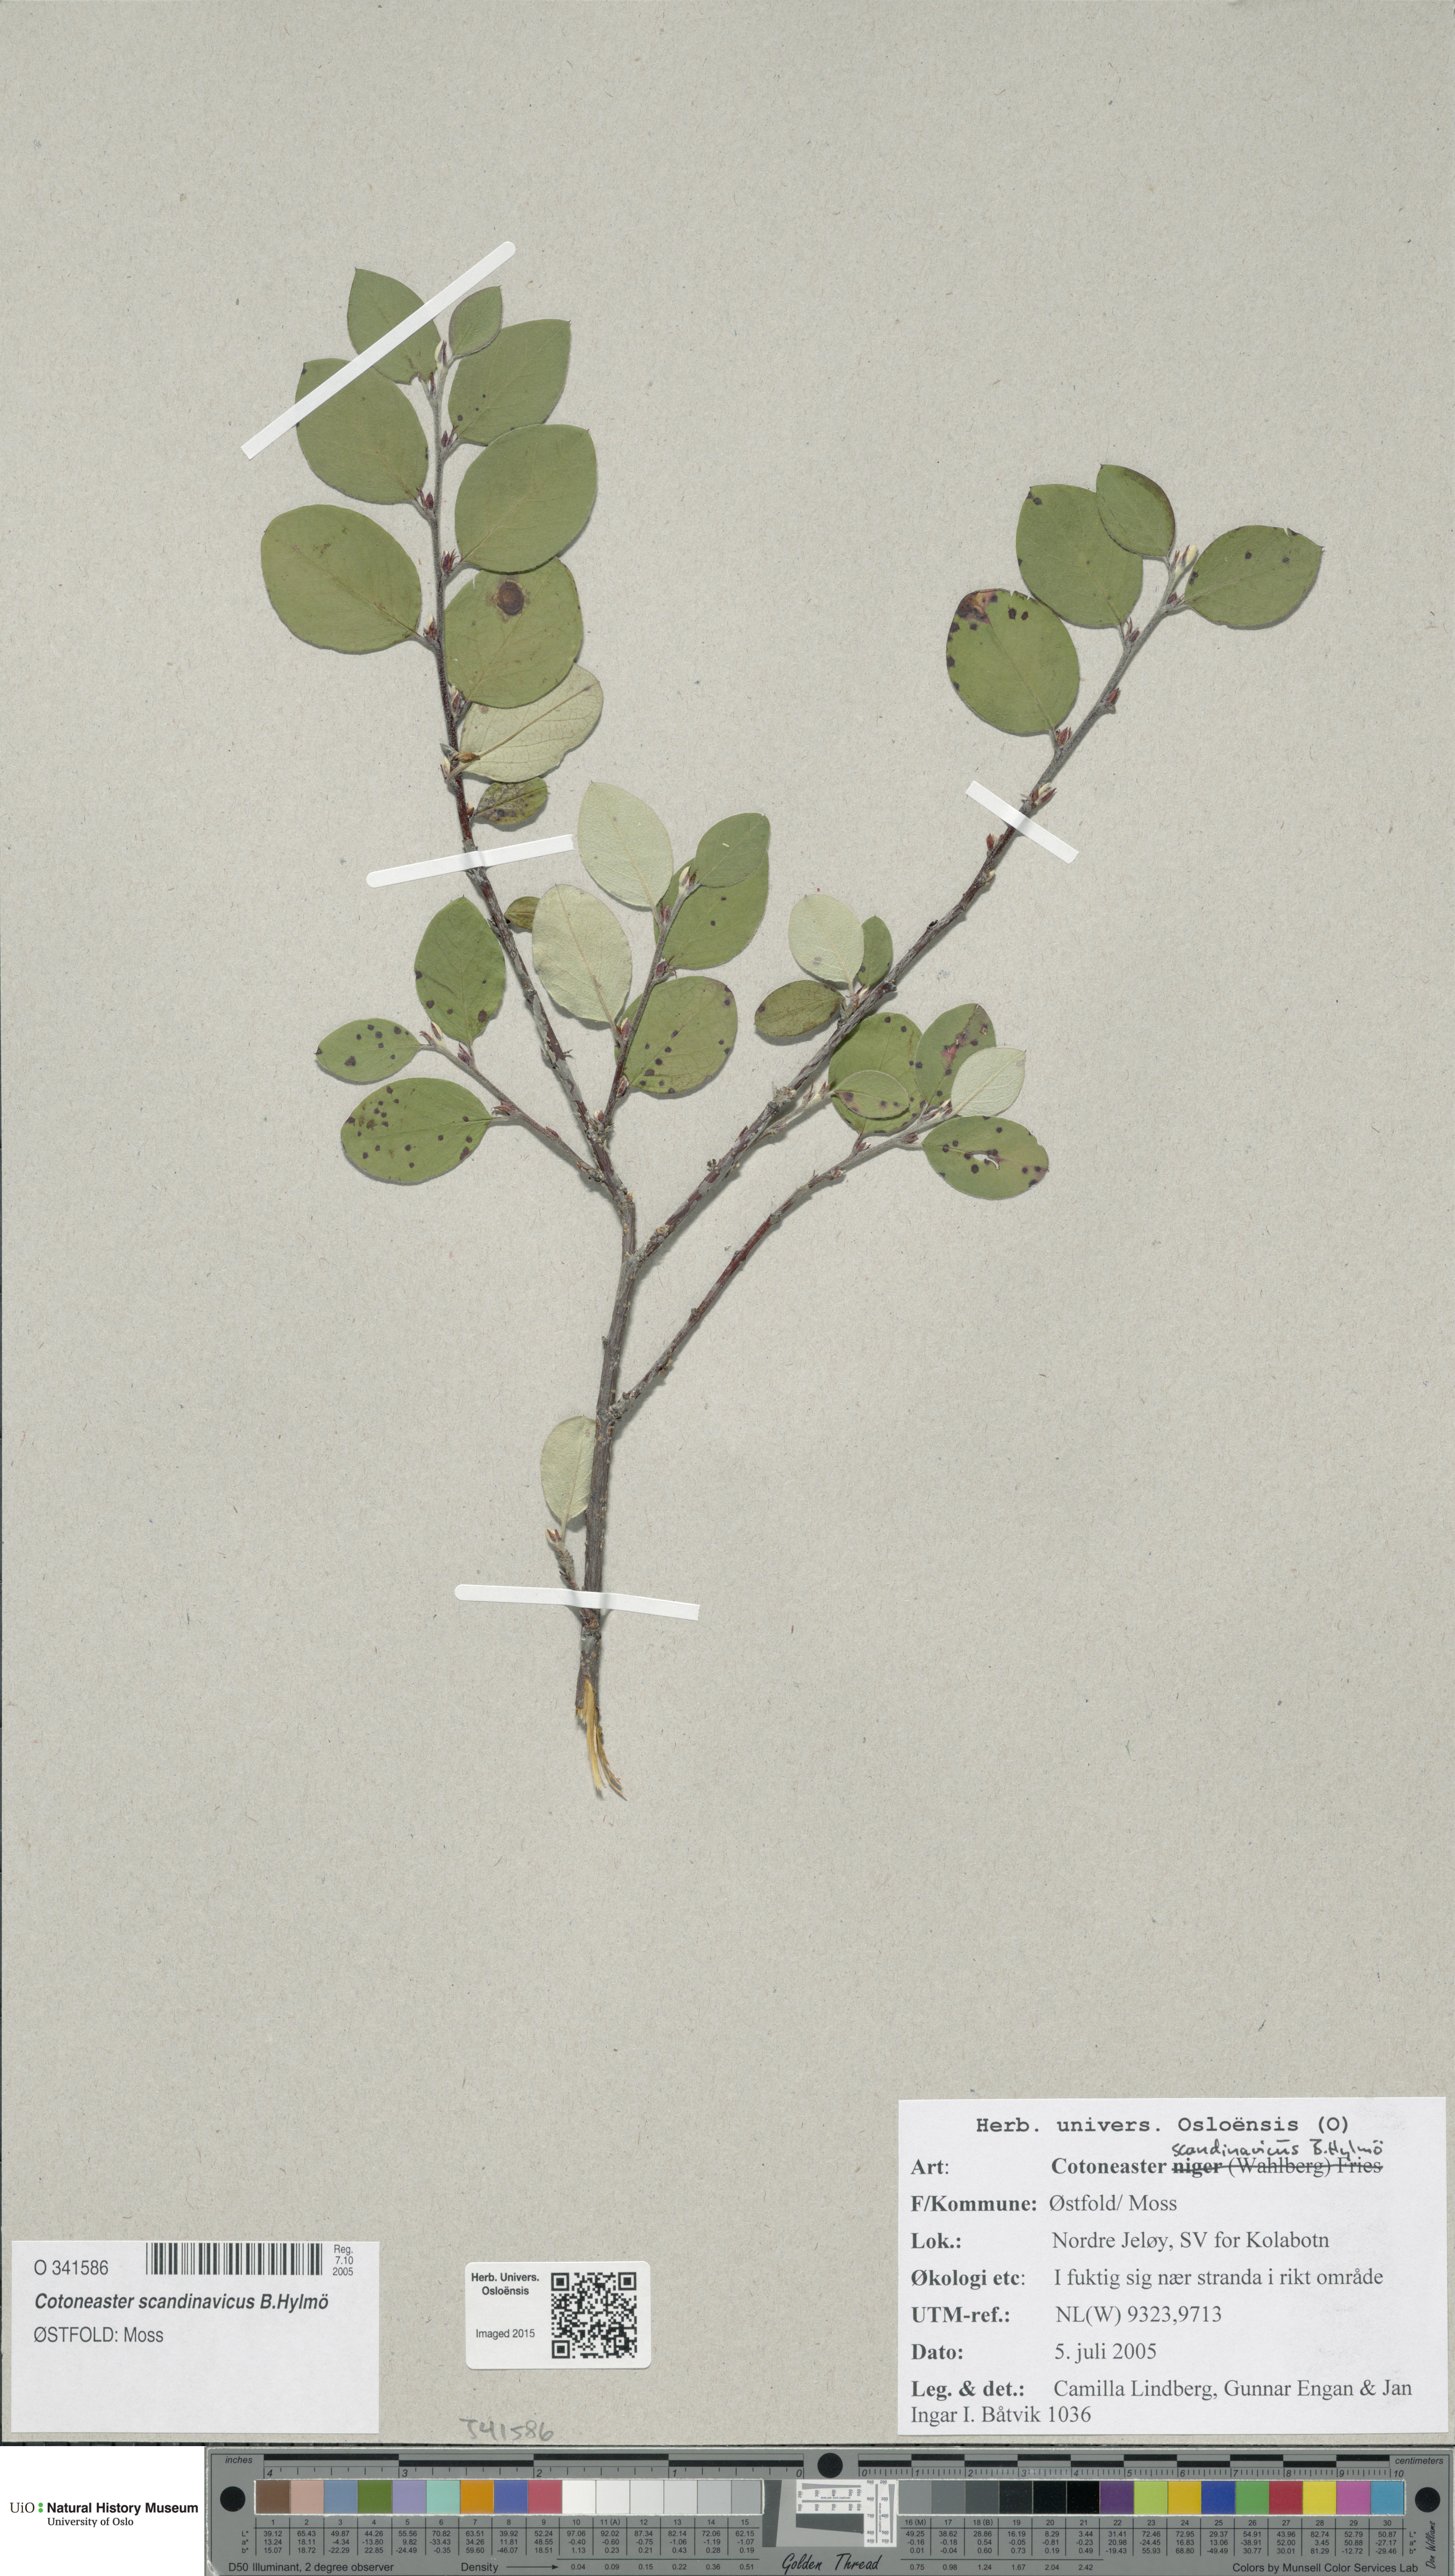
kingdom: Plantae
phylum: Tracheophyta
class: Magnoliopsida
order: Rosales
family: Rosaceae
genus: Cotoneaster
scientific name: Cotoneaster integerrimus
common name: Wild cotoneaster
